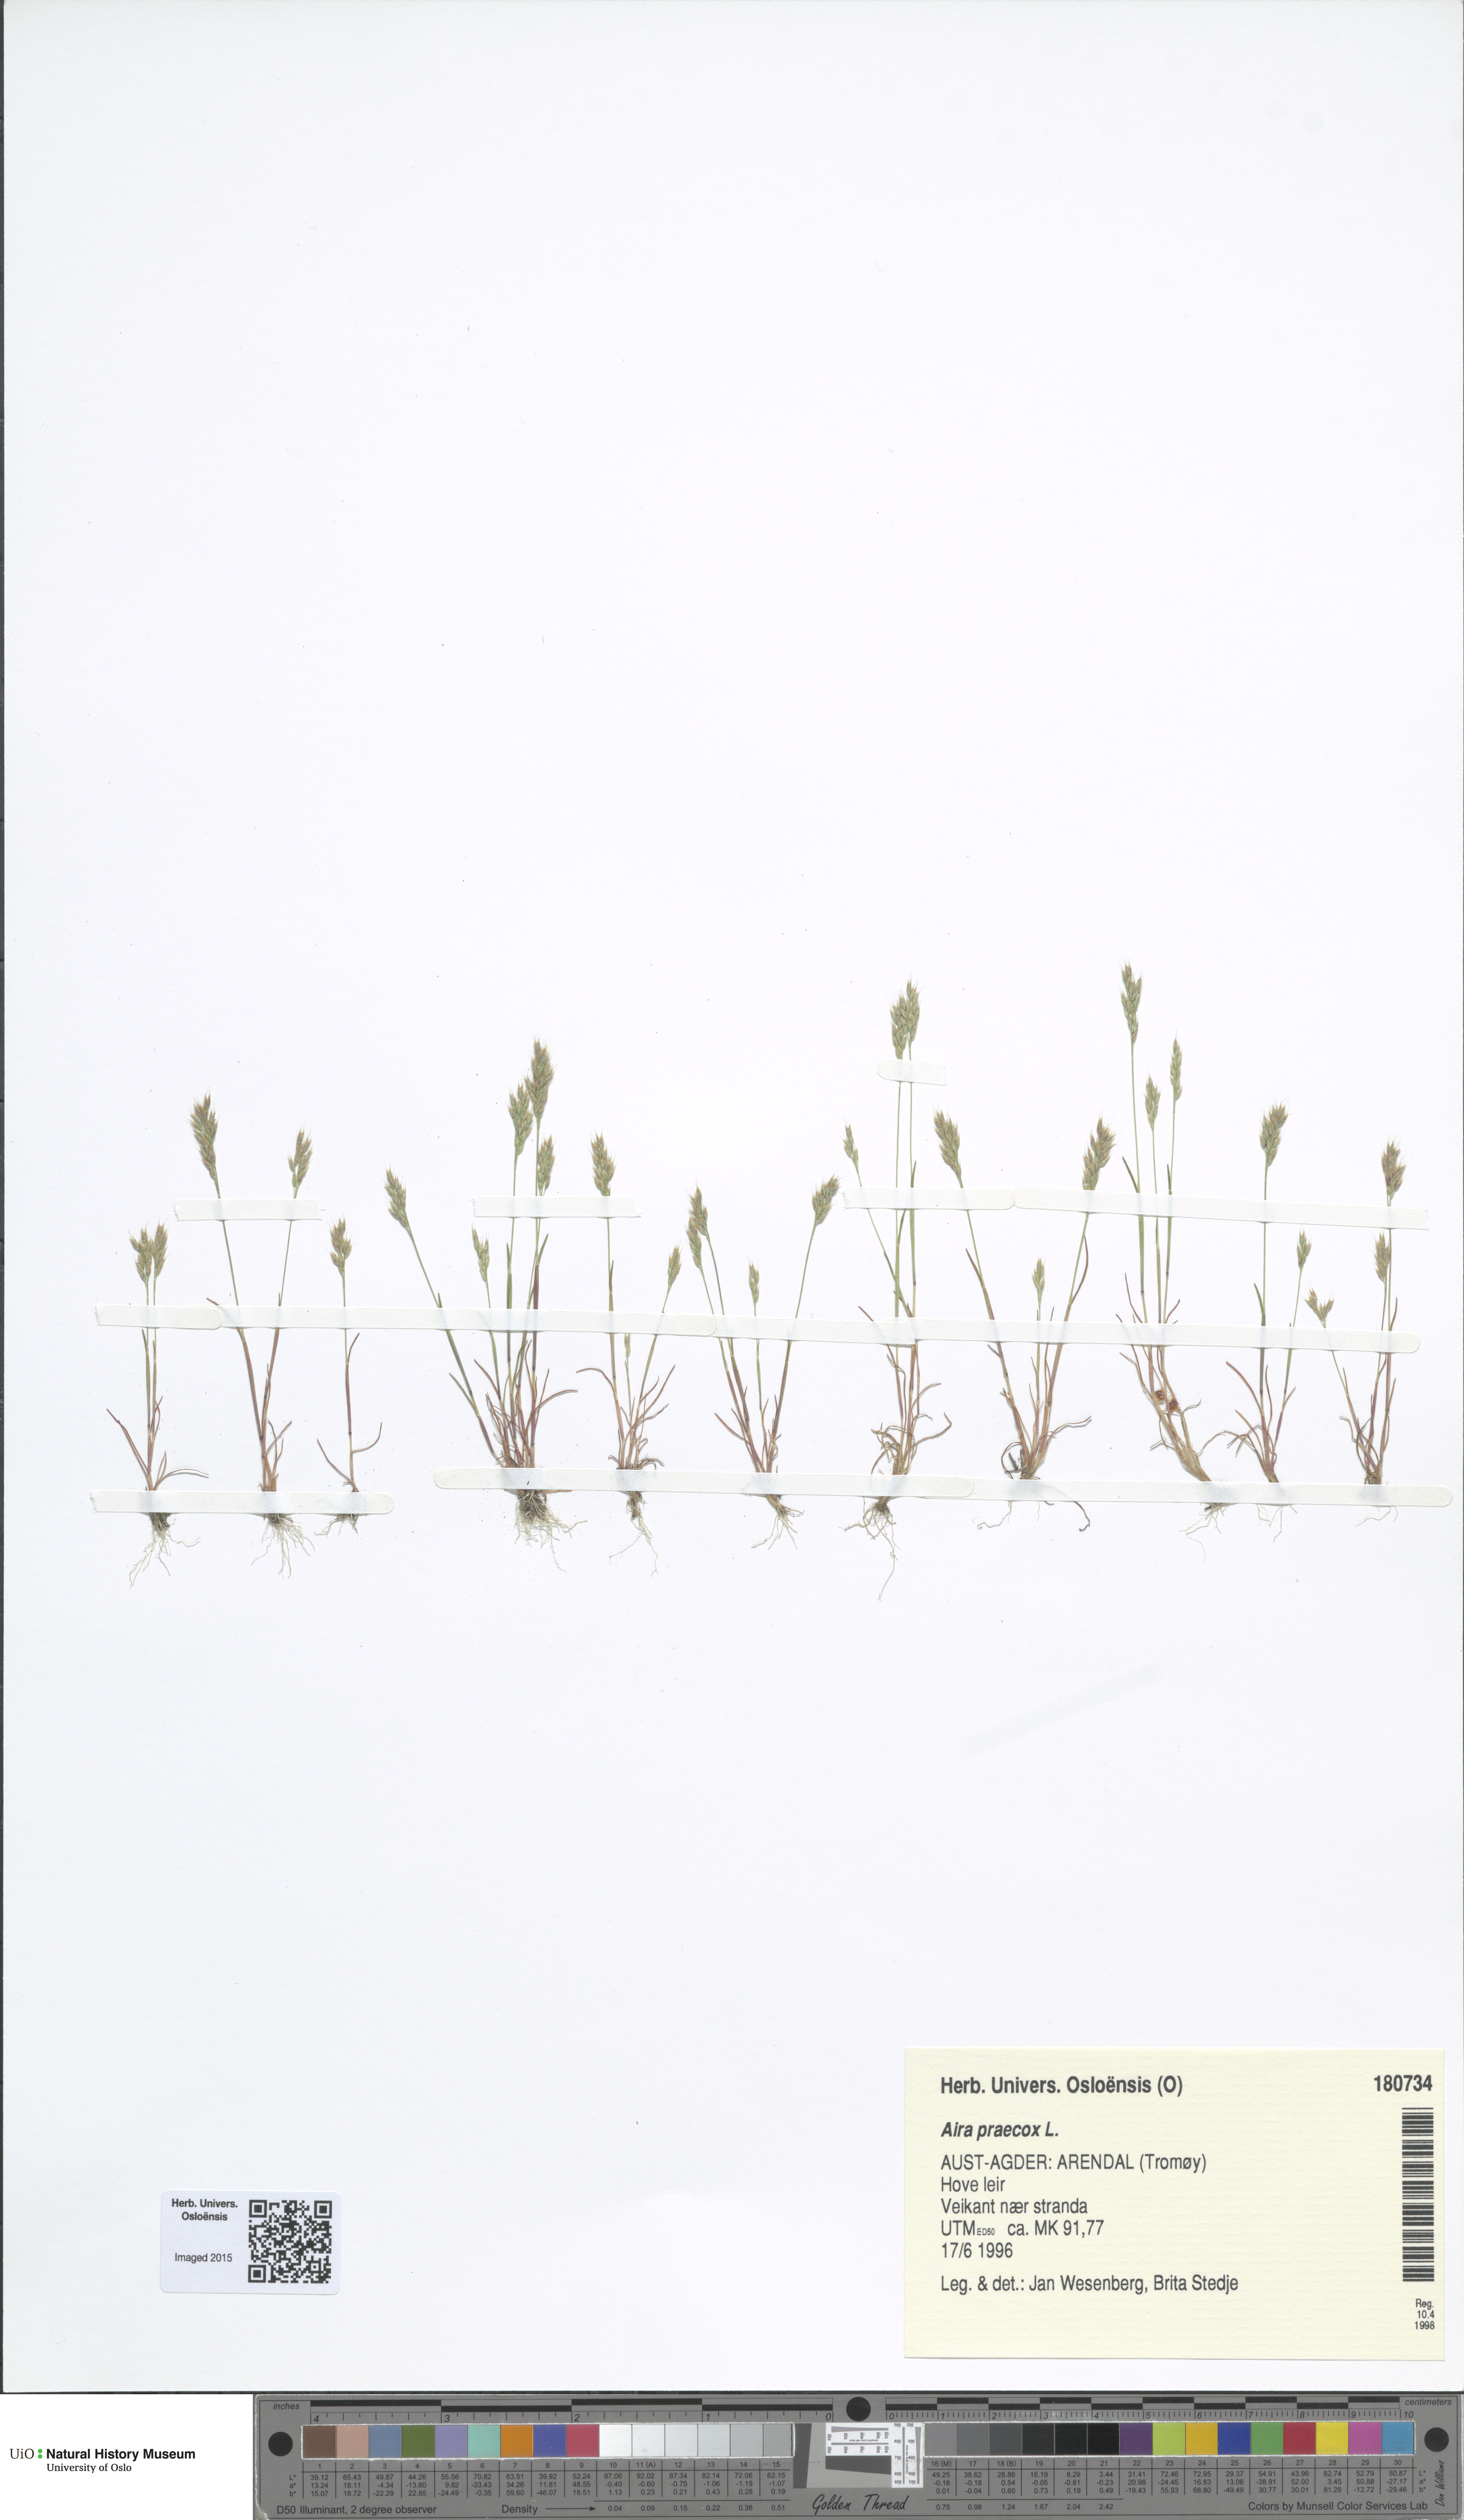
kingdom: Plantae
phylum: Tracheophyta
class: Liliopsida
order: Poales
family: Poaceae
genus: Aira
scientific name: Aira praecox
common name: Early hair-grass
